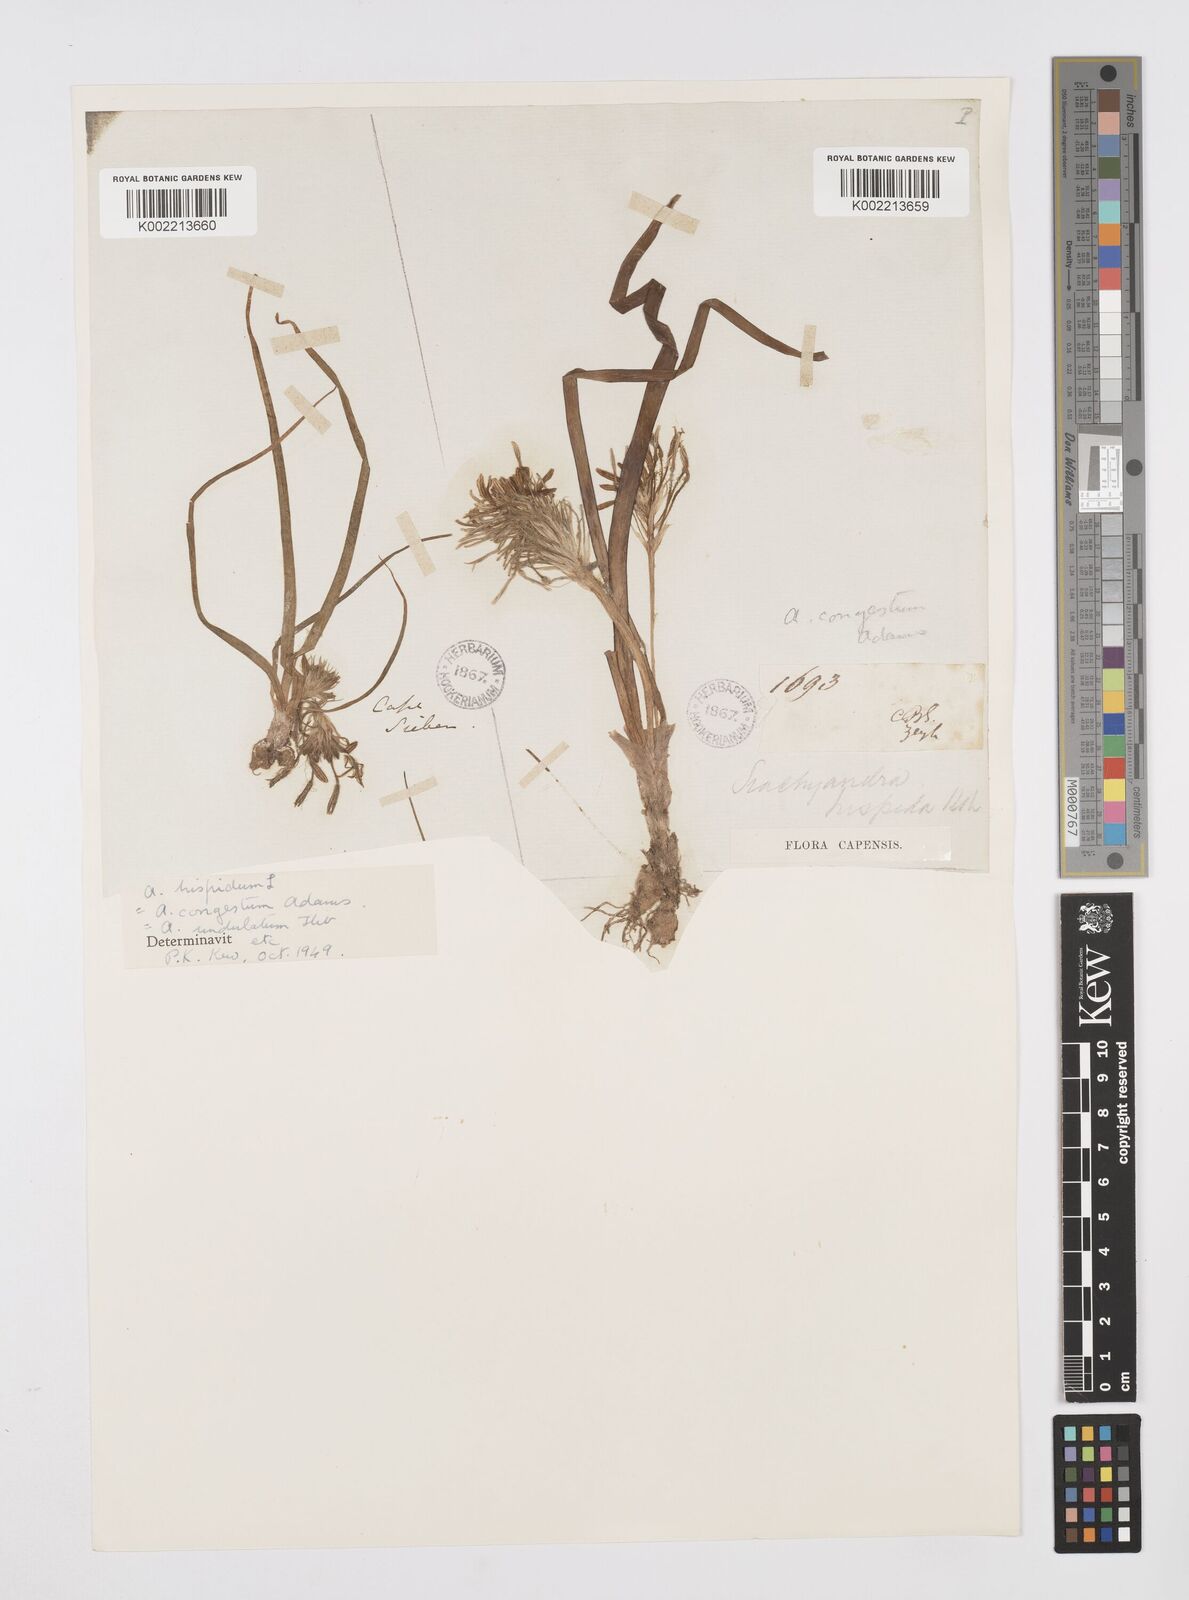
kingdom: Plantae
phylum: Tracheophyta
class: Liliopsida
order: Asparagales
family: Asphodelaceae
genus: Trachyandra
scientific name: Trachyandra hispida
